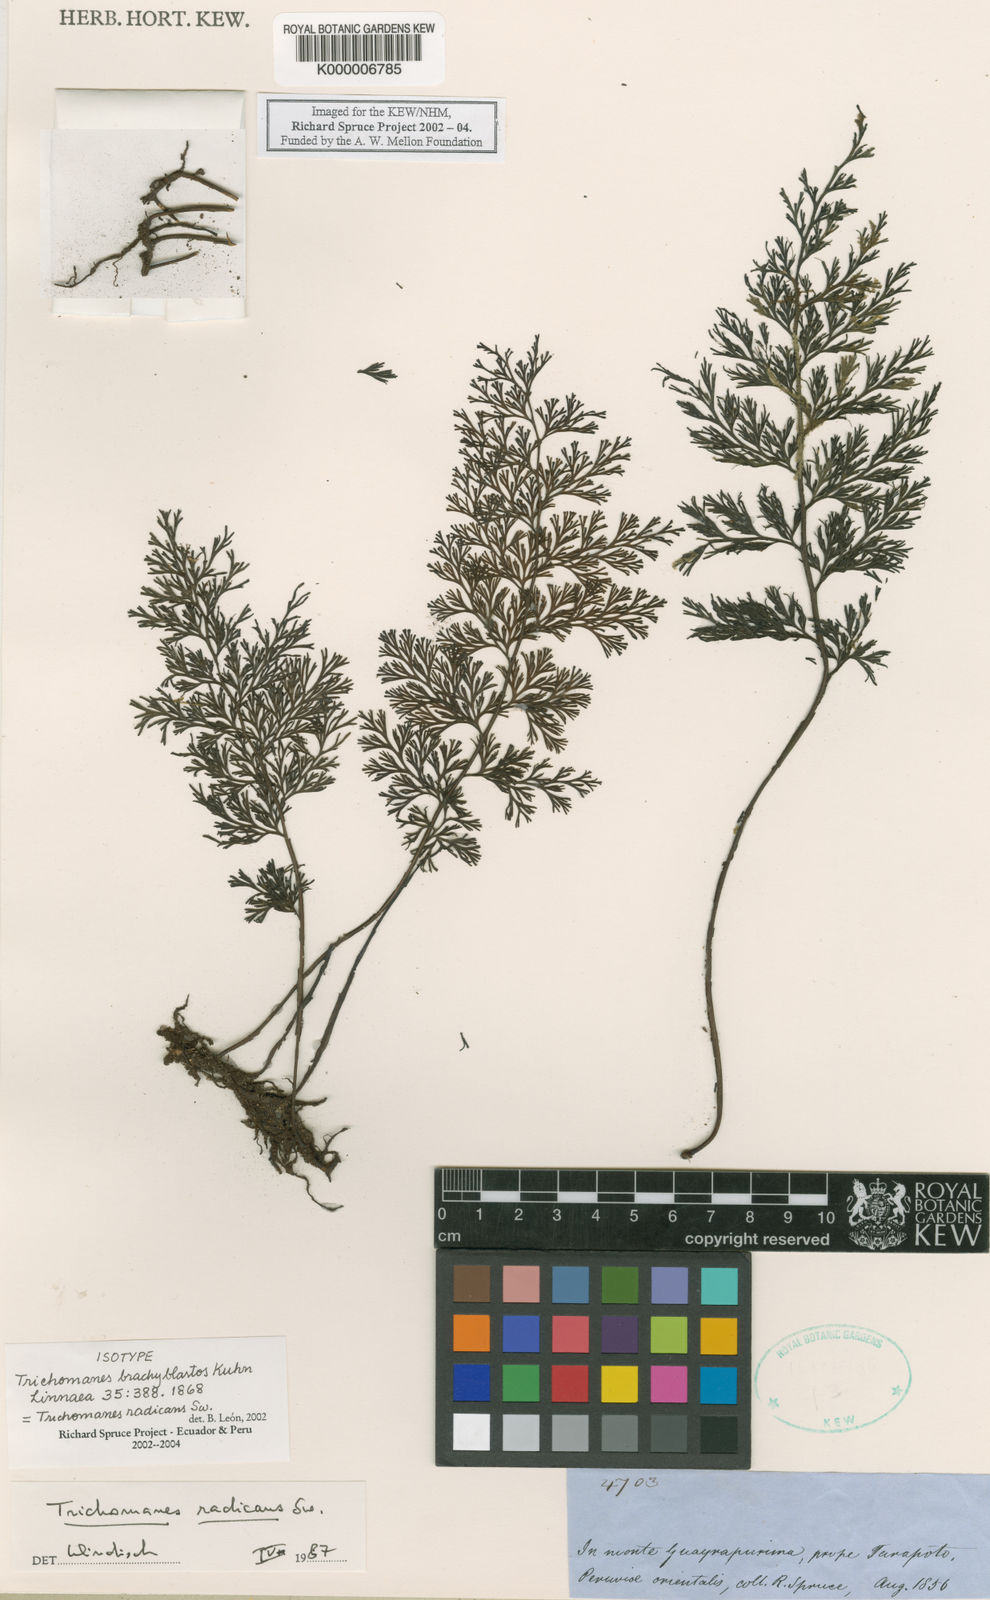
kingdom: Plantae
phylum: Tracheophyta
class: Polypodiopsida
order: Hymenophyllales
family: Hymenophyllaceae
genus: Trichomanes
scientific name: Trichomanes
